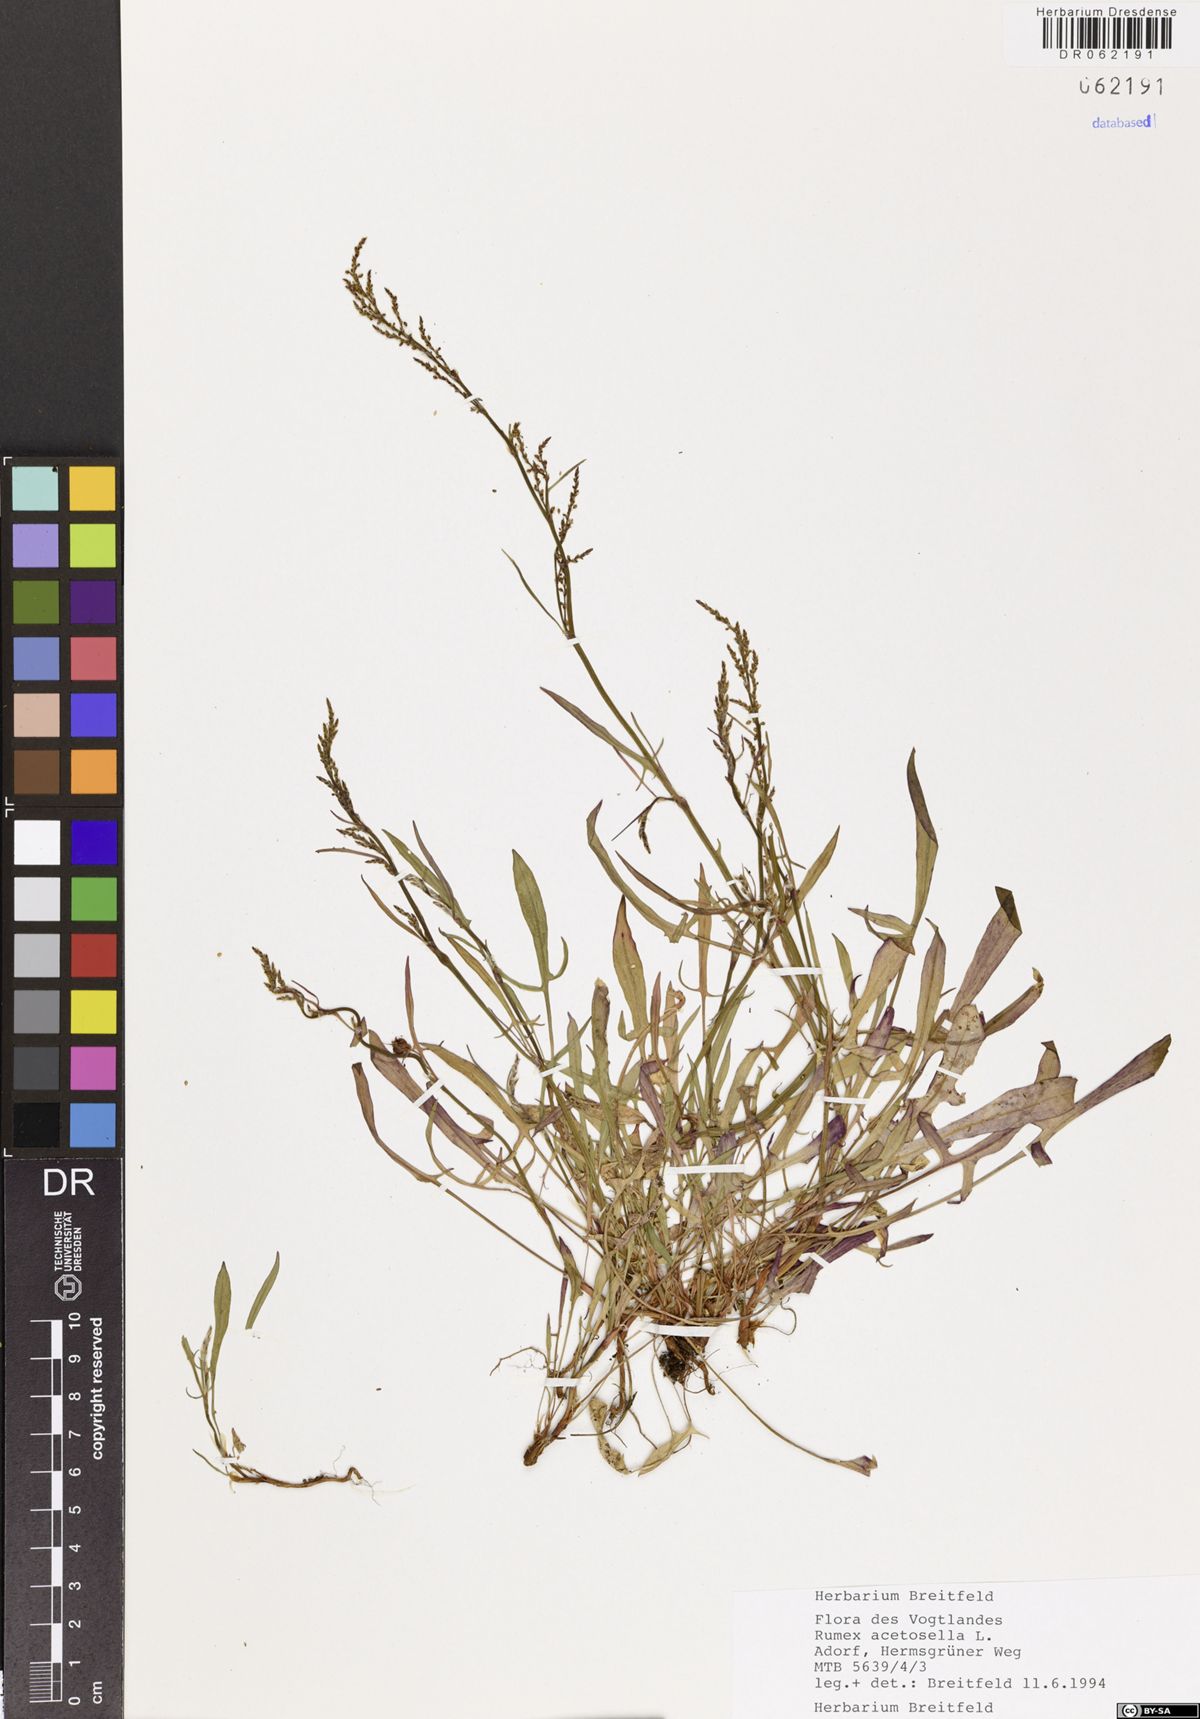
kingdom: Plantae
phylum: Tracheophyta
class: Magnoliopsida
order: Caryophyllales
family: Polygonaceae
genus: Rumex
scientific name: Rumex acetosella
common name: Common sheep sorrel
